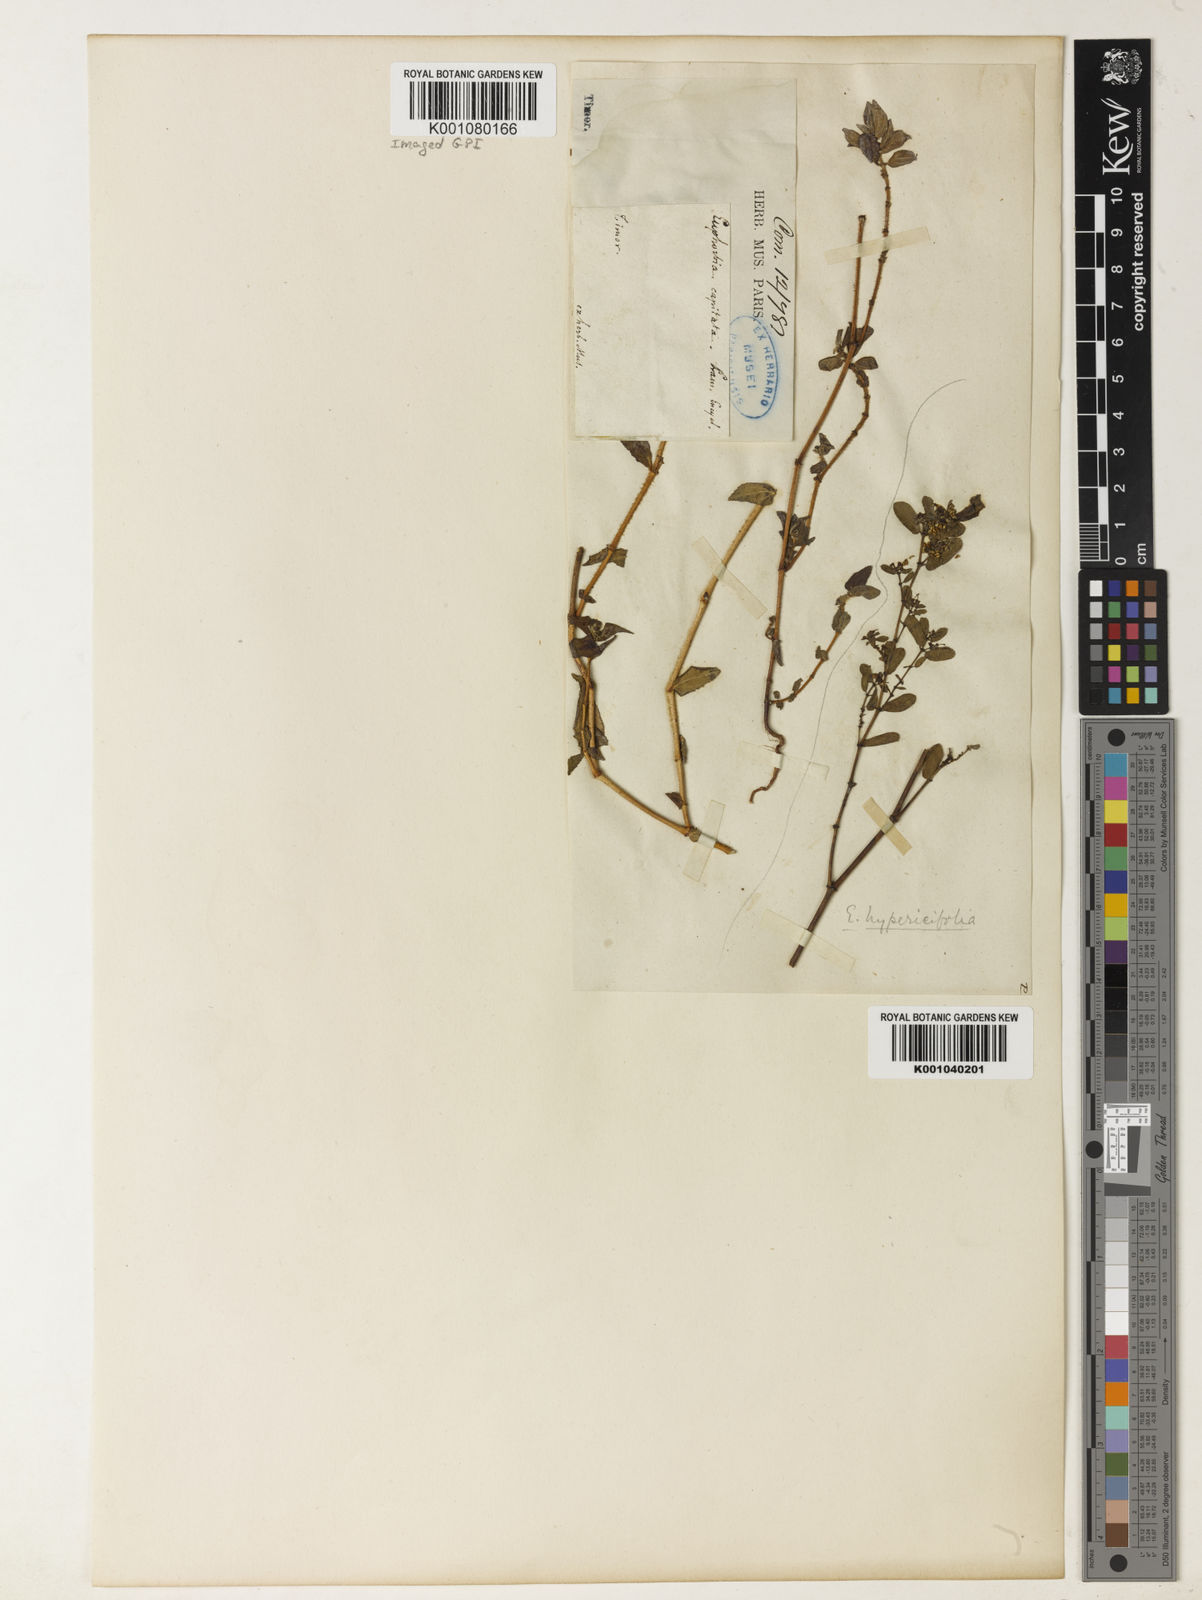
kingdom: Plantae
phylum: Tracheophyta
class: Magnoliopsida
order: Malpighiales
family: Euphorbiaceae
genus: Euphorbia
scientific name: Euphorbia hirta
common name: Pillpod sandmat
